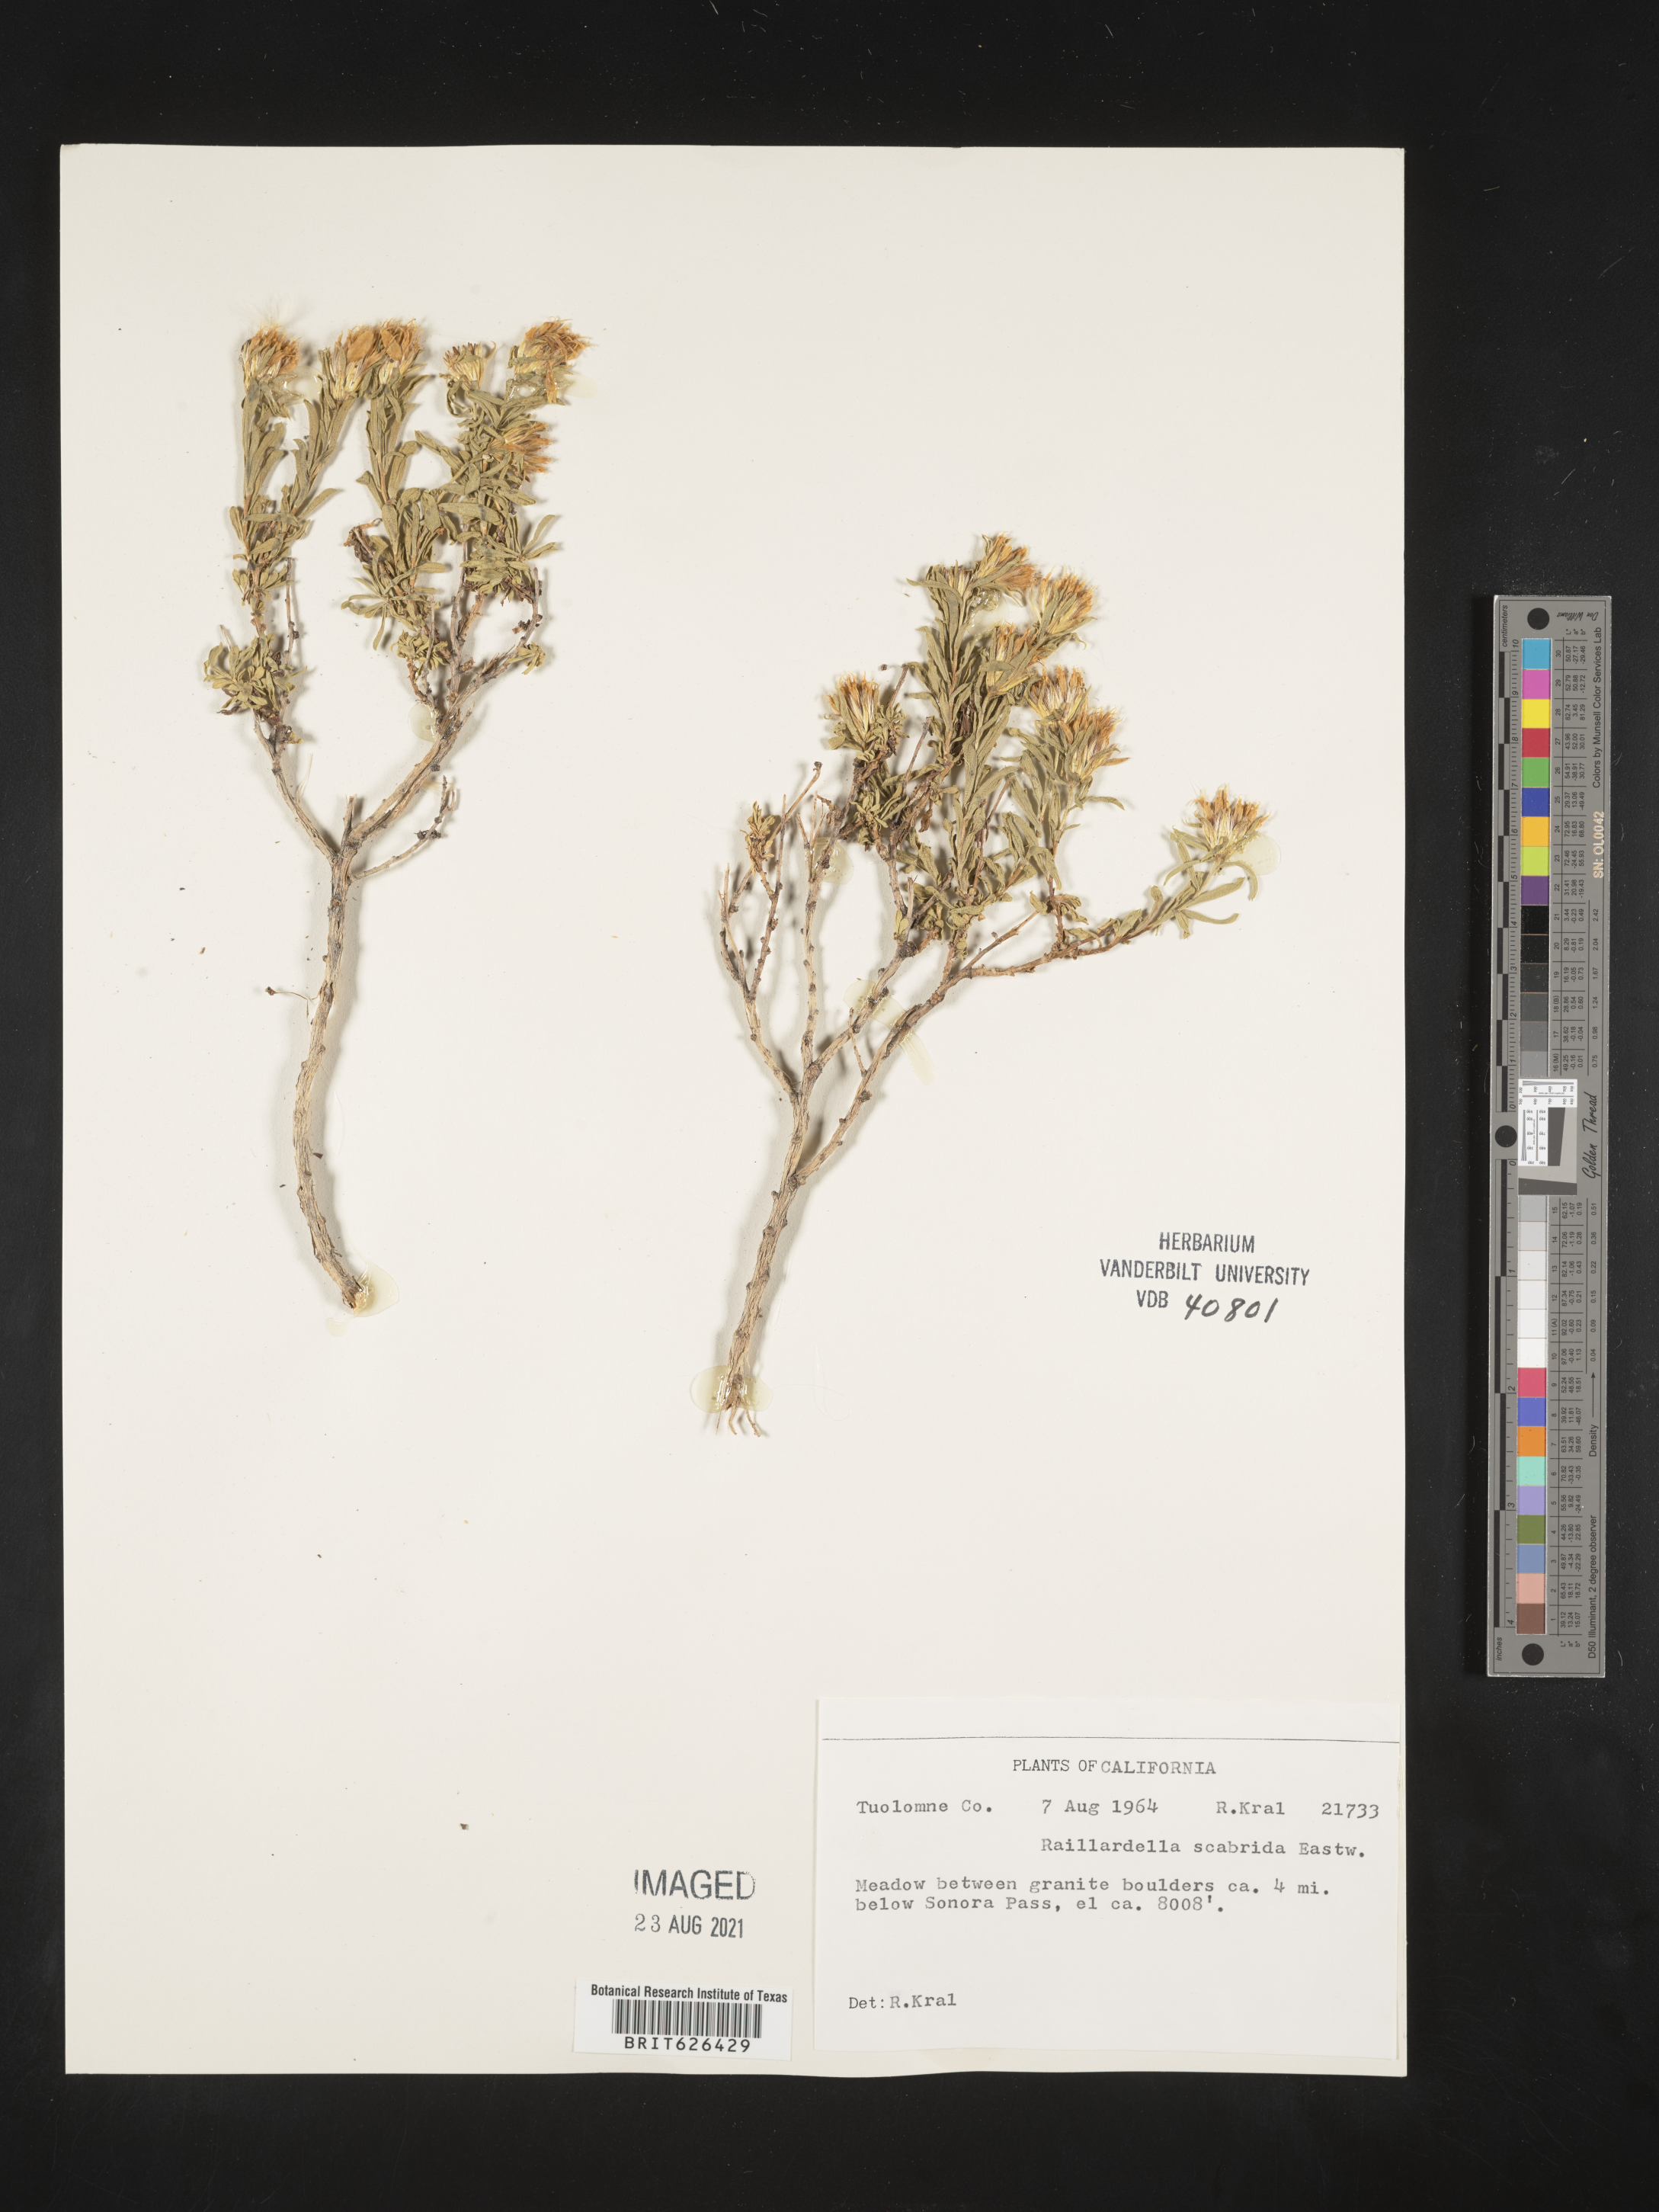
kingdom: Plantae
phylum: Tracheophyta
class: Magnoliopsida
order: Asterales
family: Asteraceae
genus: Anisocarpus
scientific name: Anisocarpus scabridus
